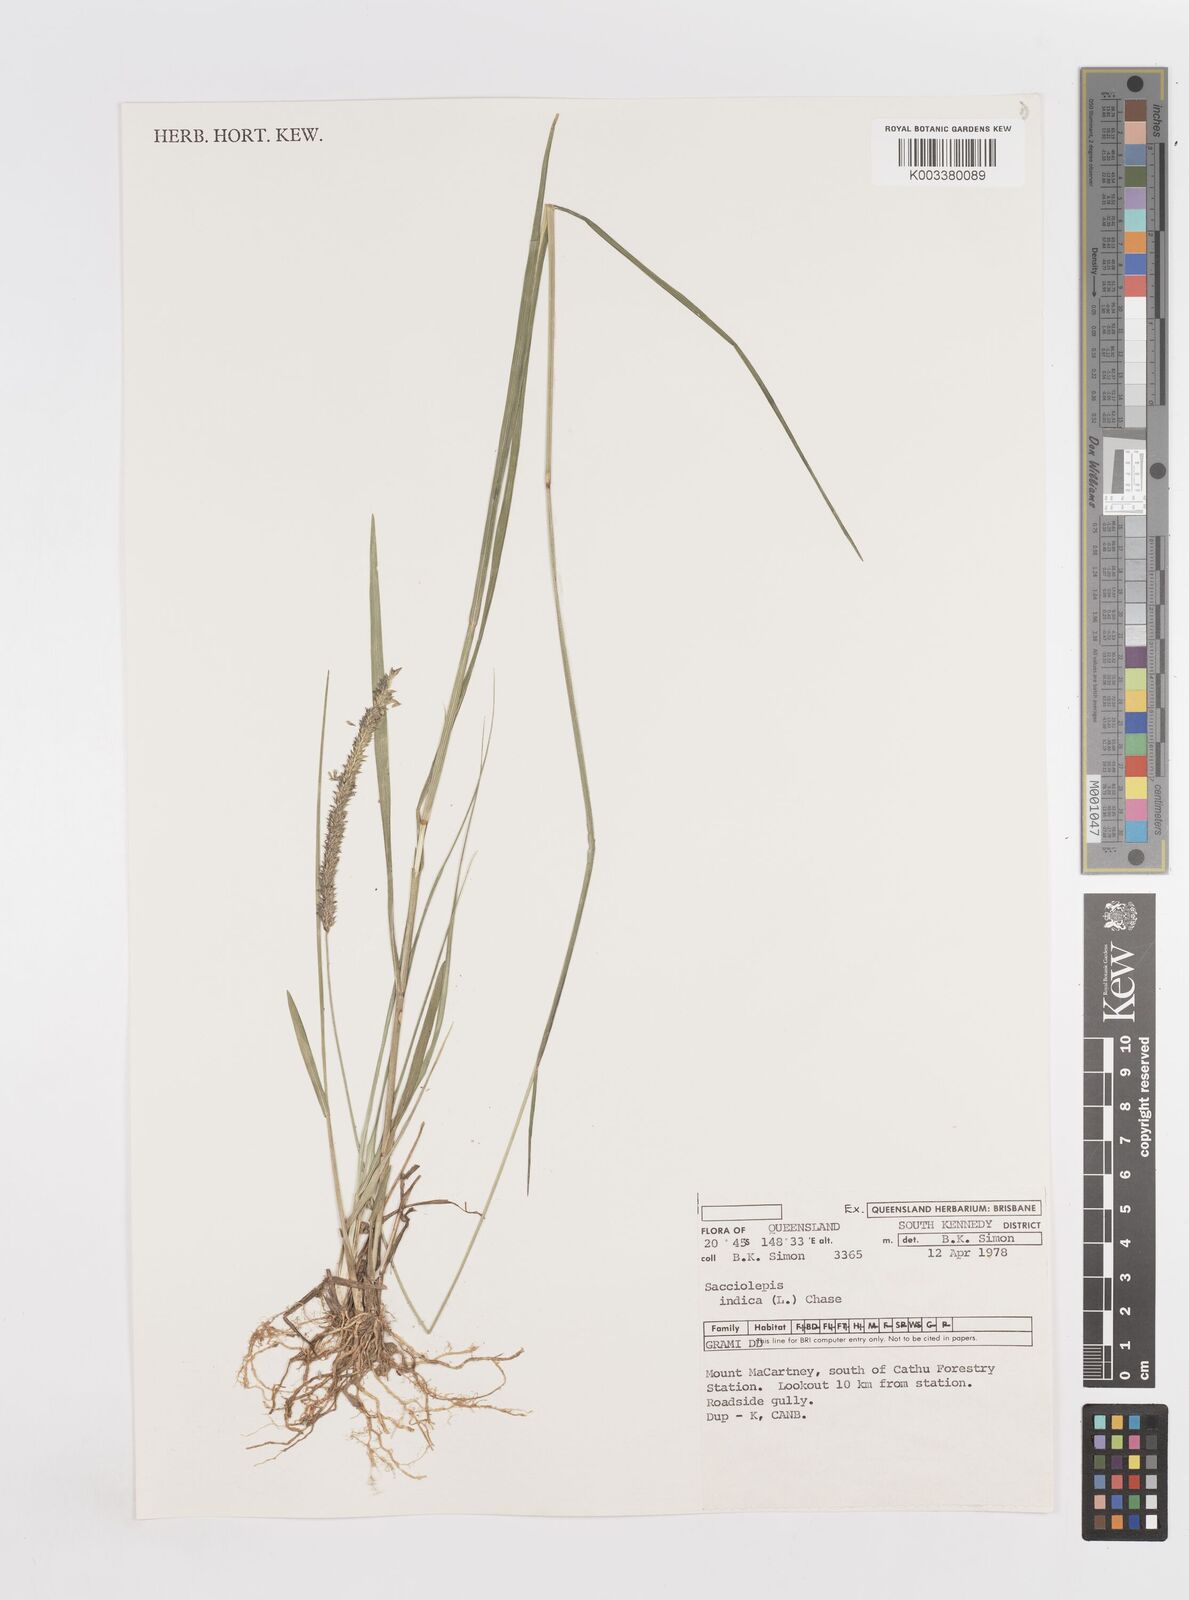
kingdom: Plantae
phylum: Tracheophyta
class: Liliopsida
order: Poales
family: Poaceae
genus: Sacciolepis
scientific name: Sacciolepis indica
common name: Glenwoodgrass
